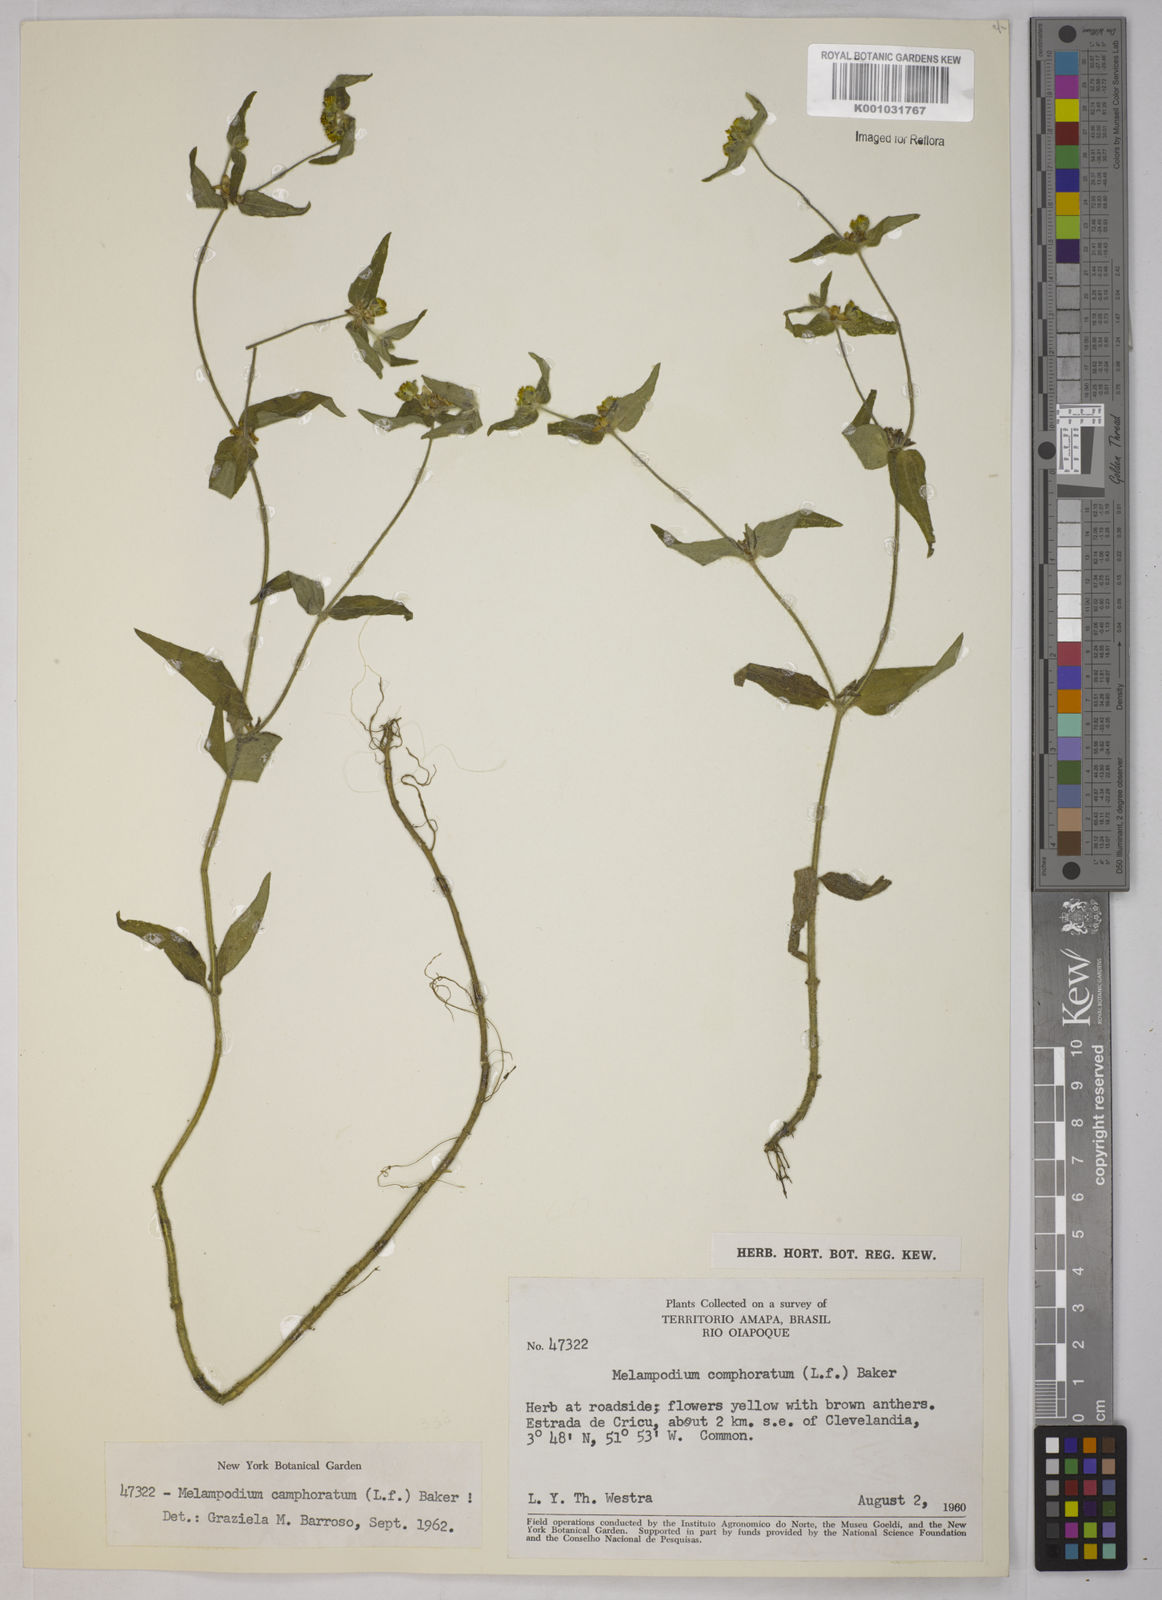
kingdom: Plantae
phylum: Tracheophyta
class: Magnoliopsida
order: Asterales
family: Asteraceae
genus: Unxia
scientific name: Unxia camphorata
